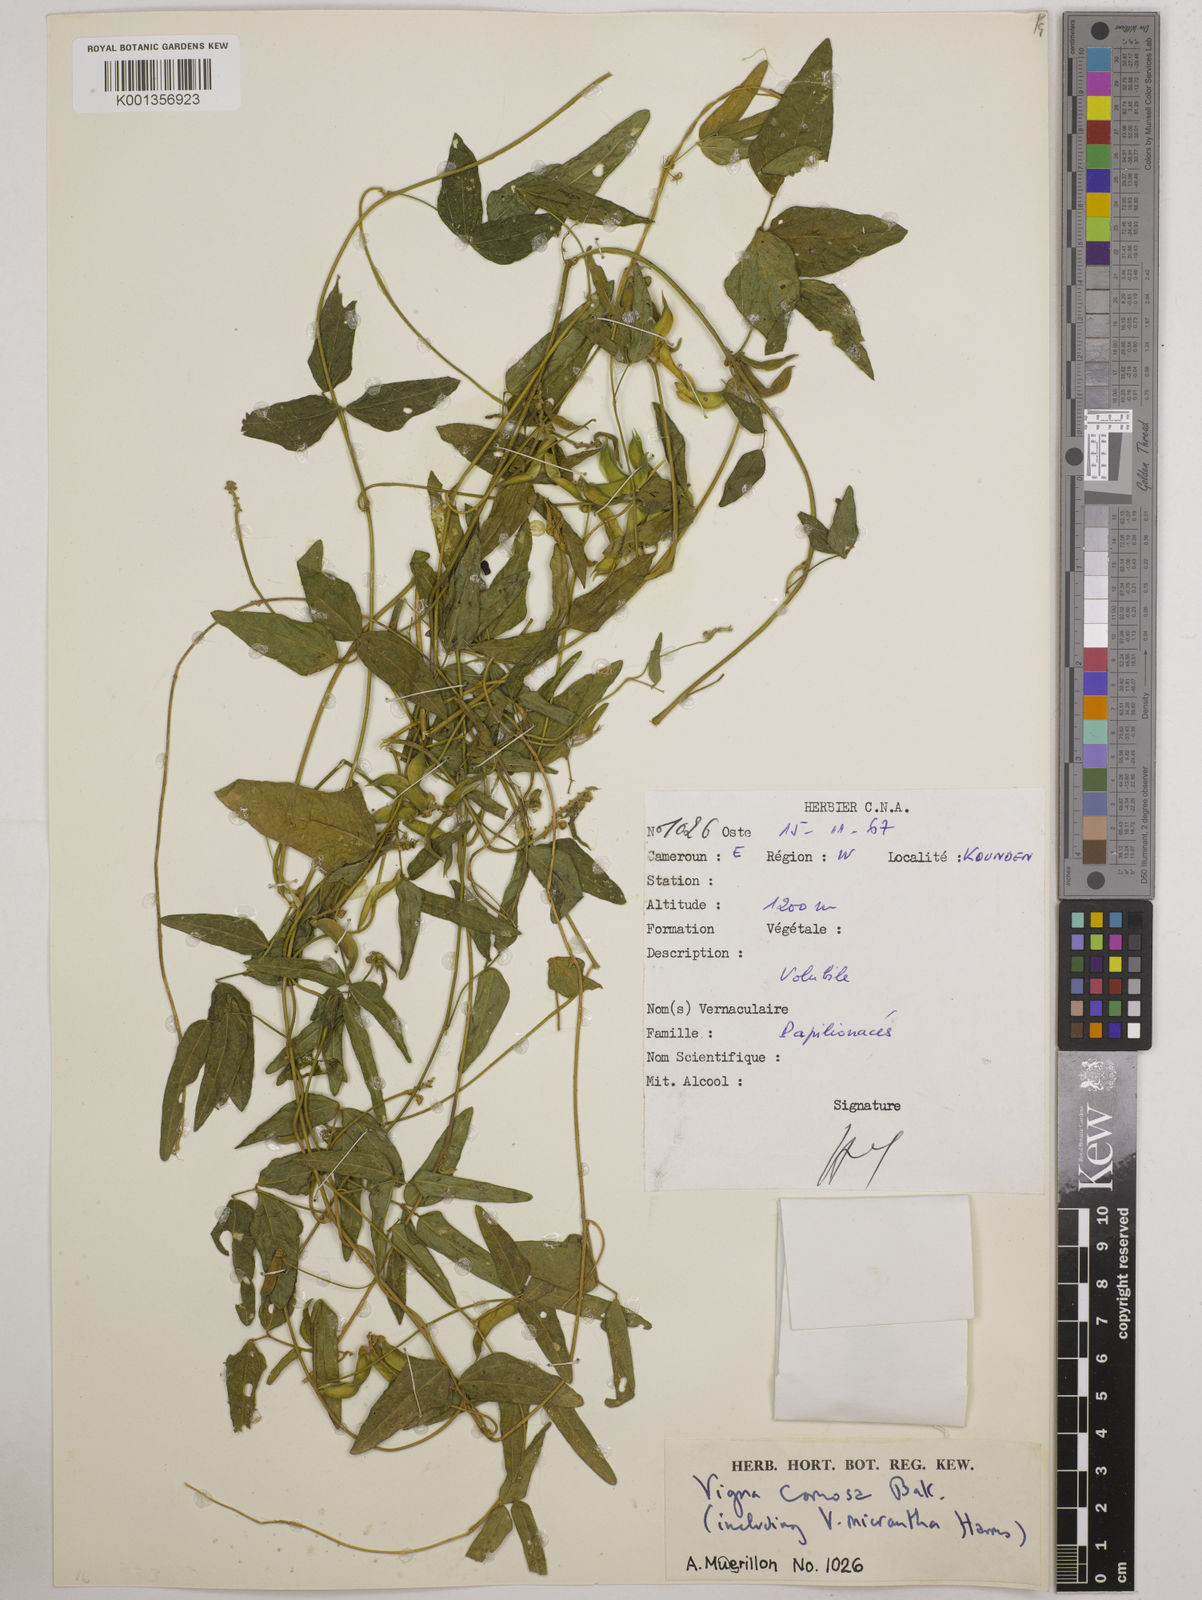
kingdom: Plantae
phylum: Tracheophyta
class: Magnoliopsida
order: Fabales
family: Fabaceae
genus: Vigna
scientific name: Vigna comosa
